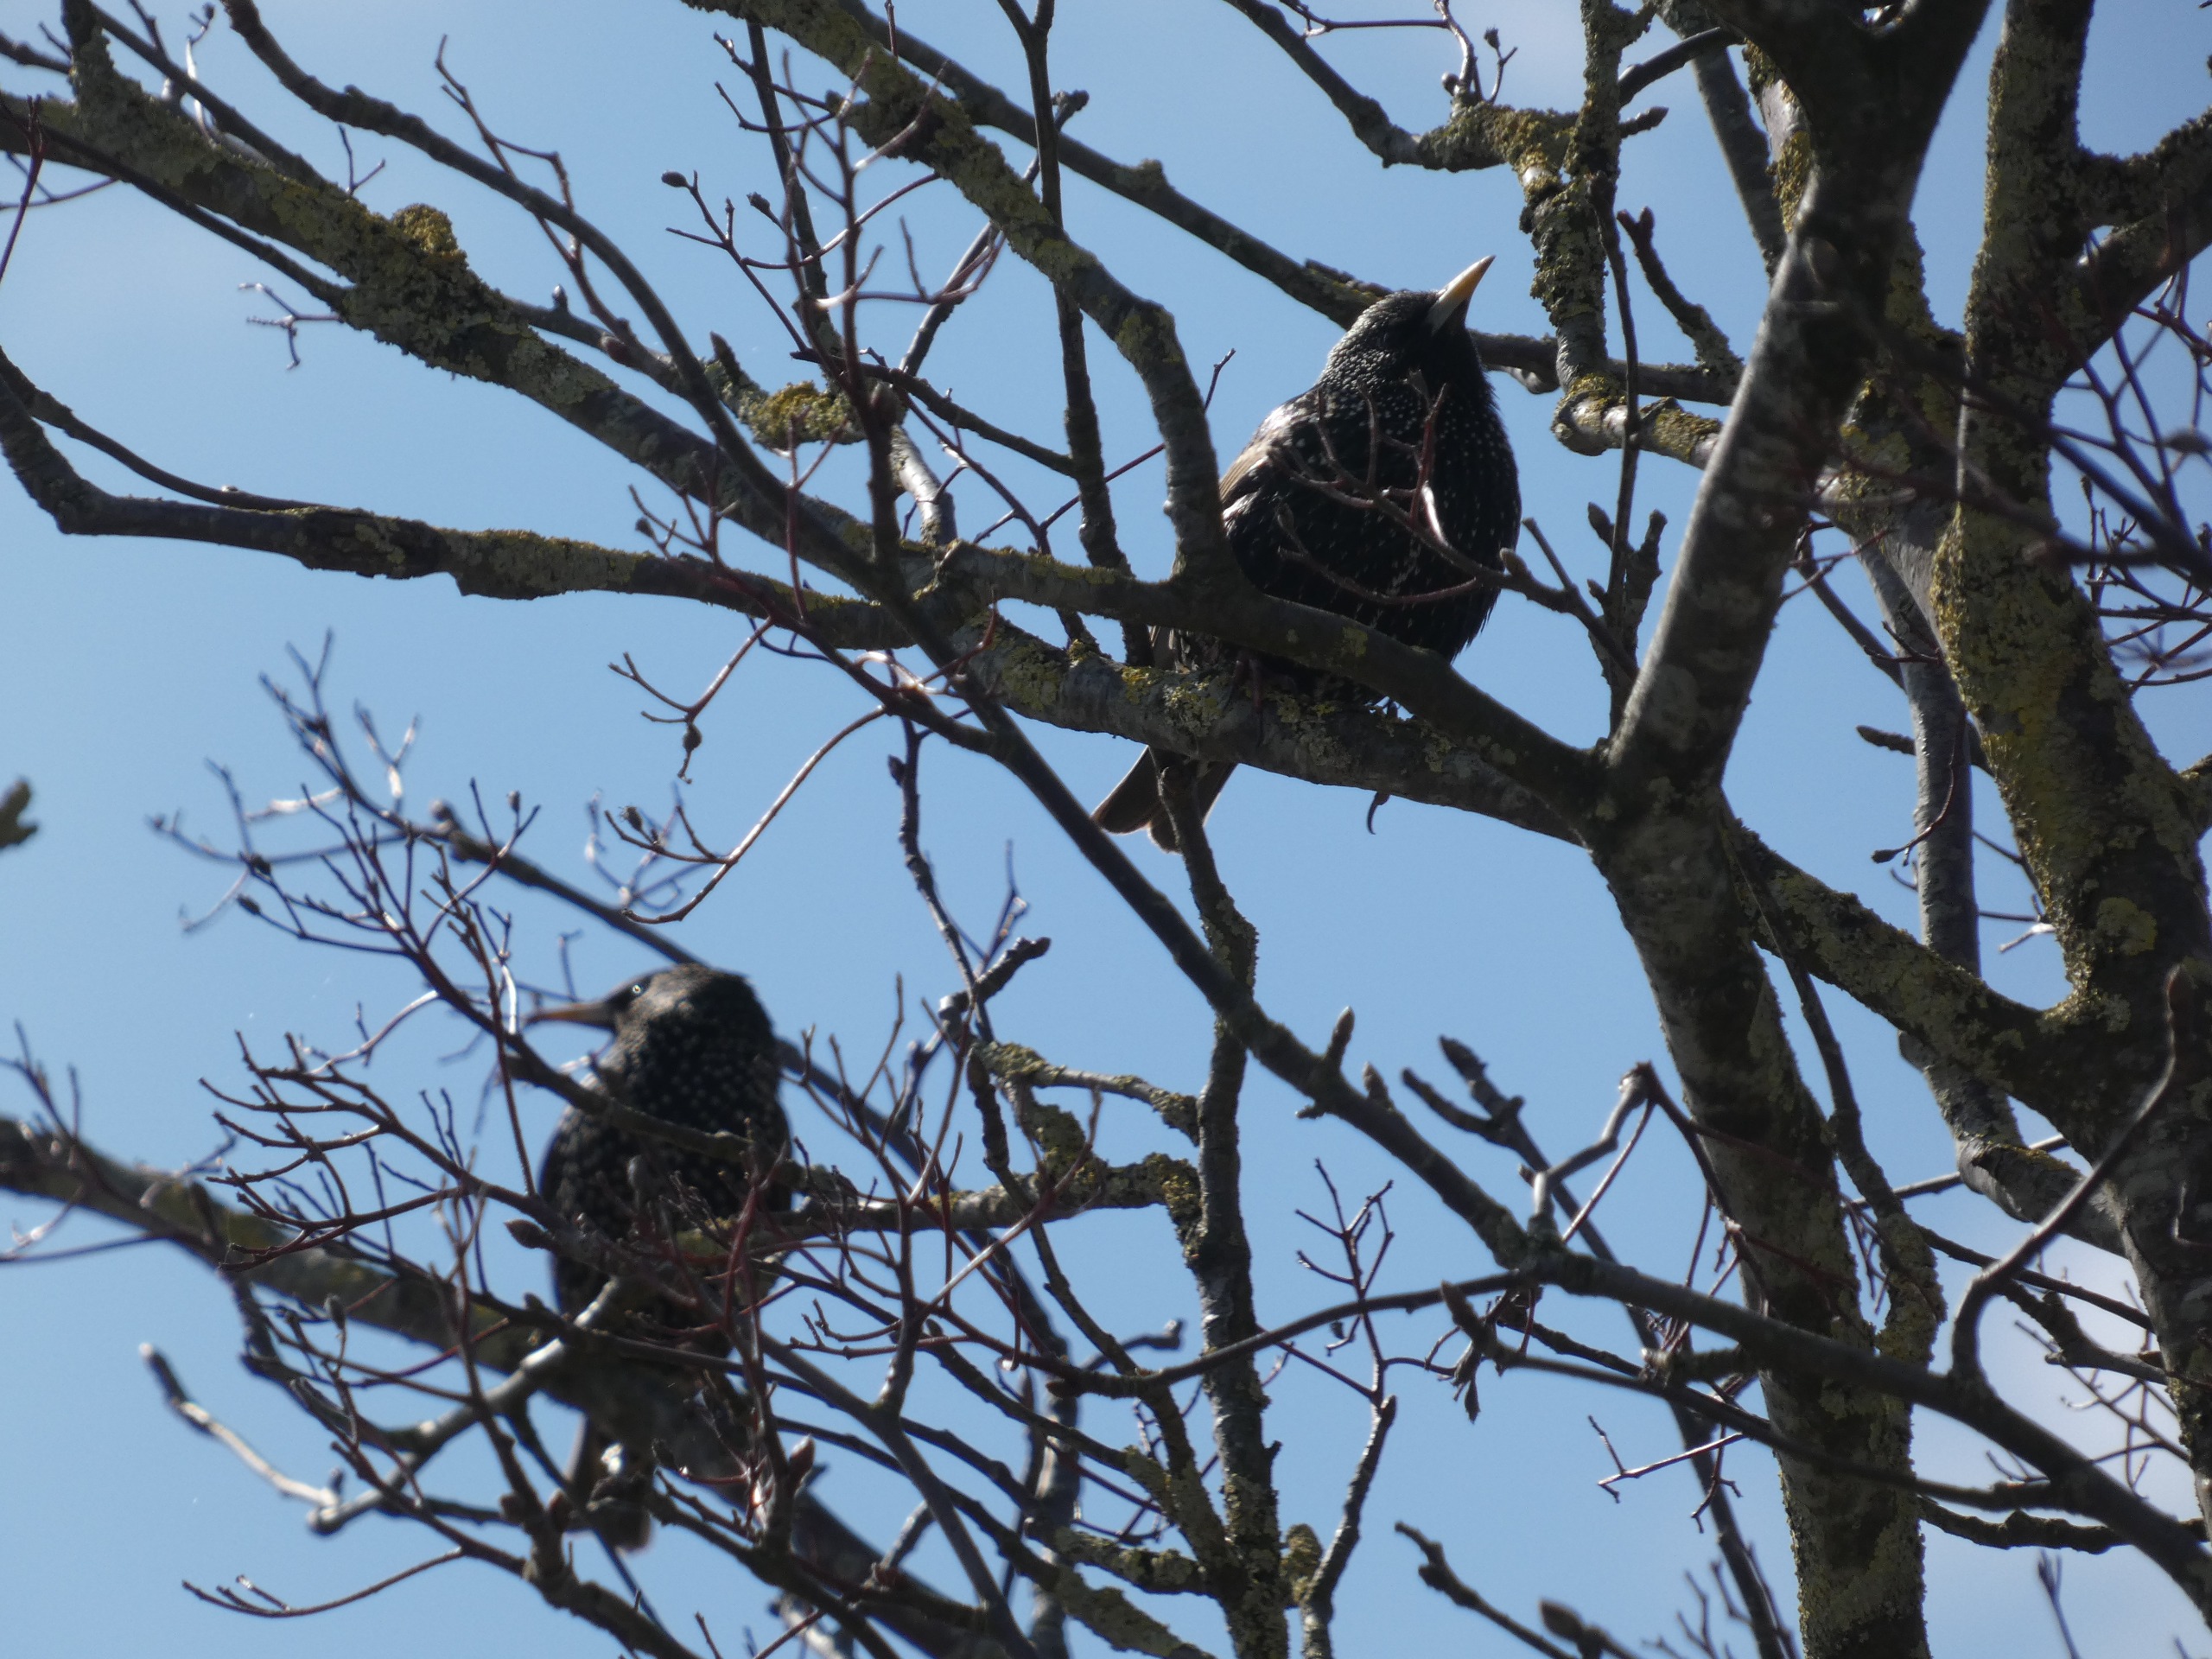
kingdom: Animalia
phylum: Chordata
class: Aves
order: Passeriformes
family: Sturnidae
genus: Sturnus
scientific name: Sturnus vulgaris
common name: Stær
